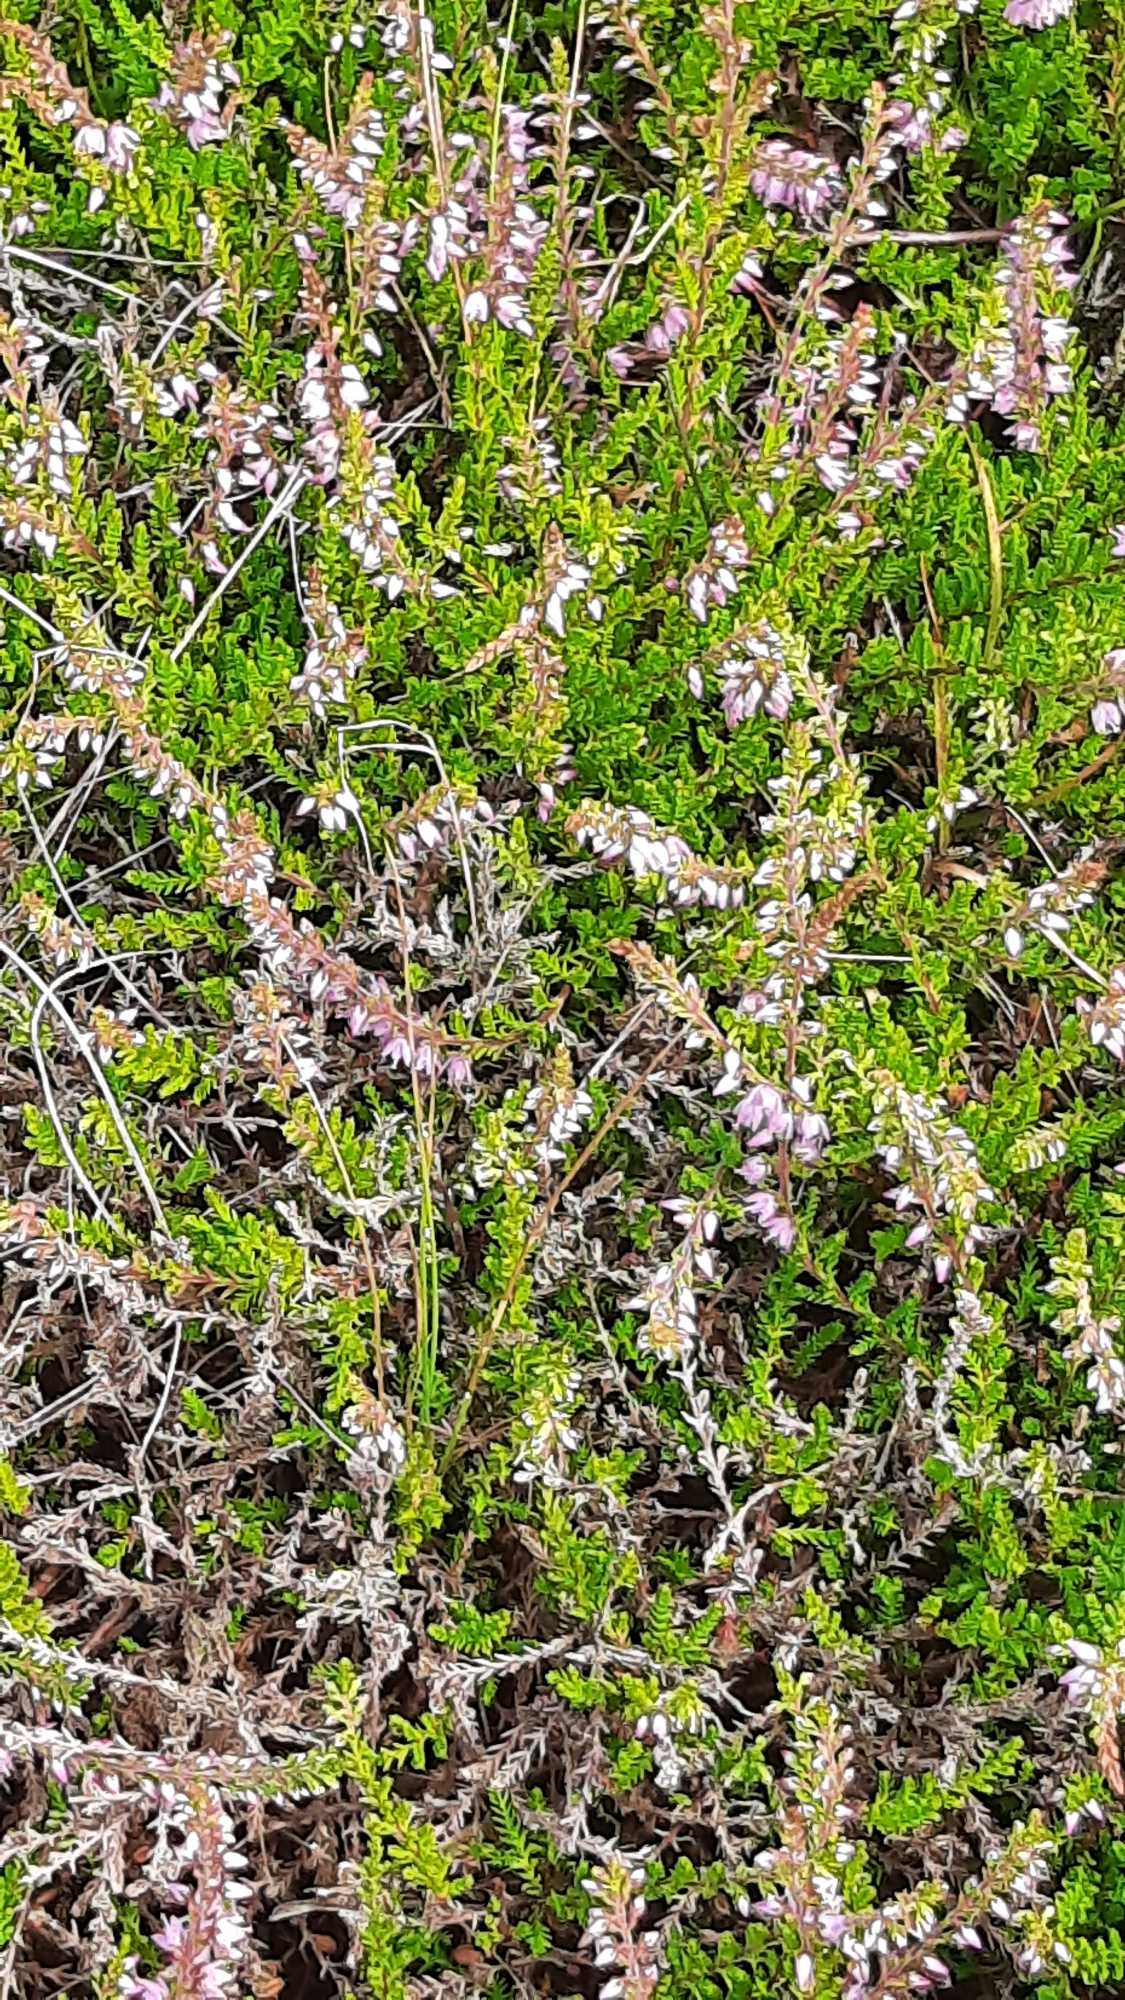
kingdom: Plantae
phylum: Tracheophyta
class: Magnoliopsida
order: Ericales
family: Ericaceae
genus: Calluna
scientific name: Calluna vulgaris
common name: Hedelyng
